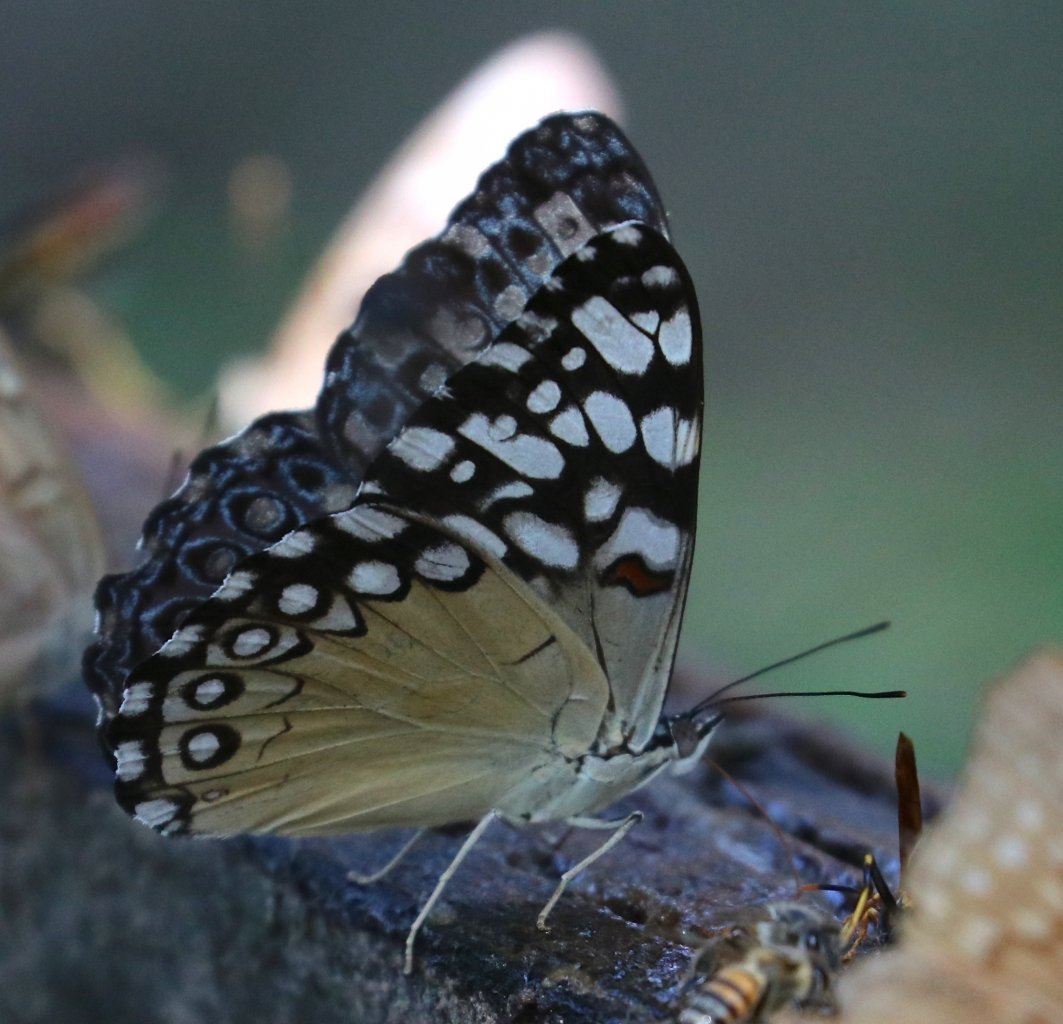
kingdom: Animalia
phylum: Arthropoda
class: Insecta
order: Lepidoptera
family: Nymphalidae
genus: Hamadryas
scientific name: Hamadryas guatemalena
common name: Guatemalan Cracker
